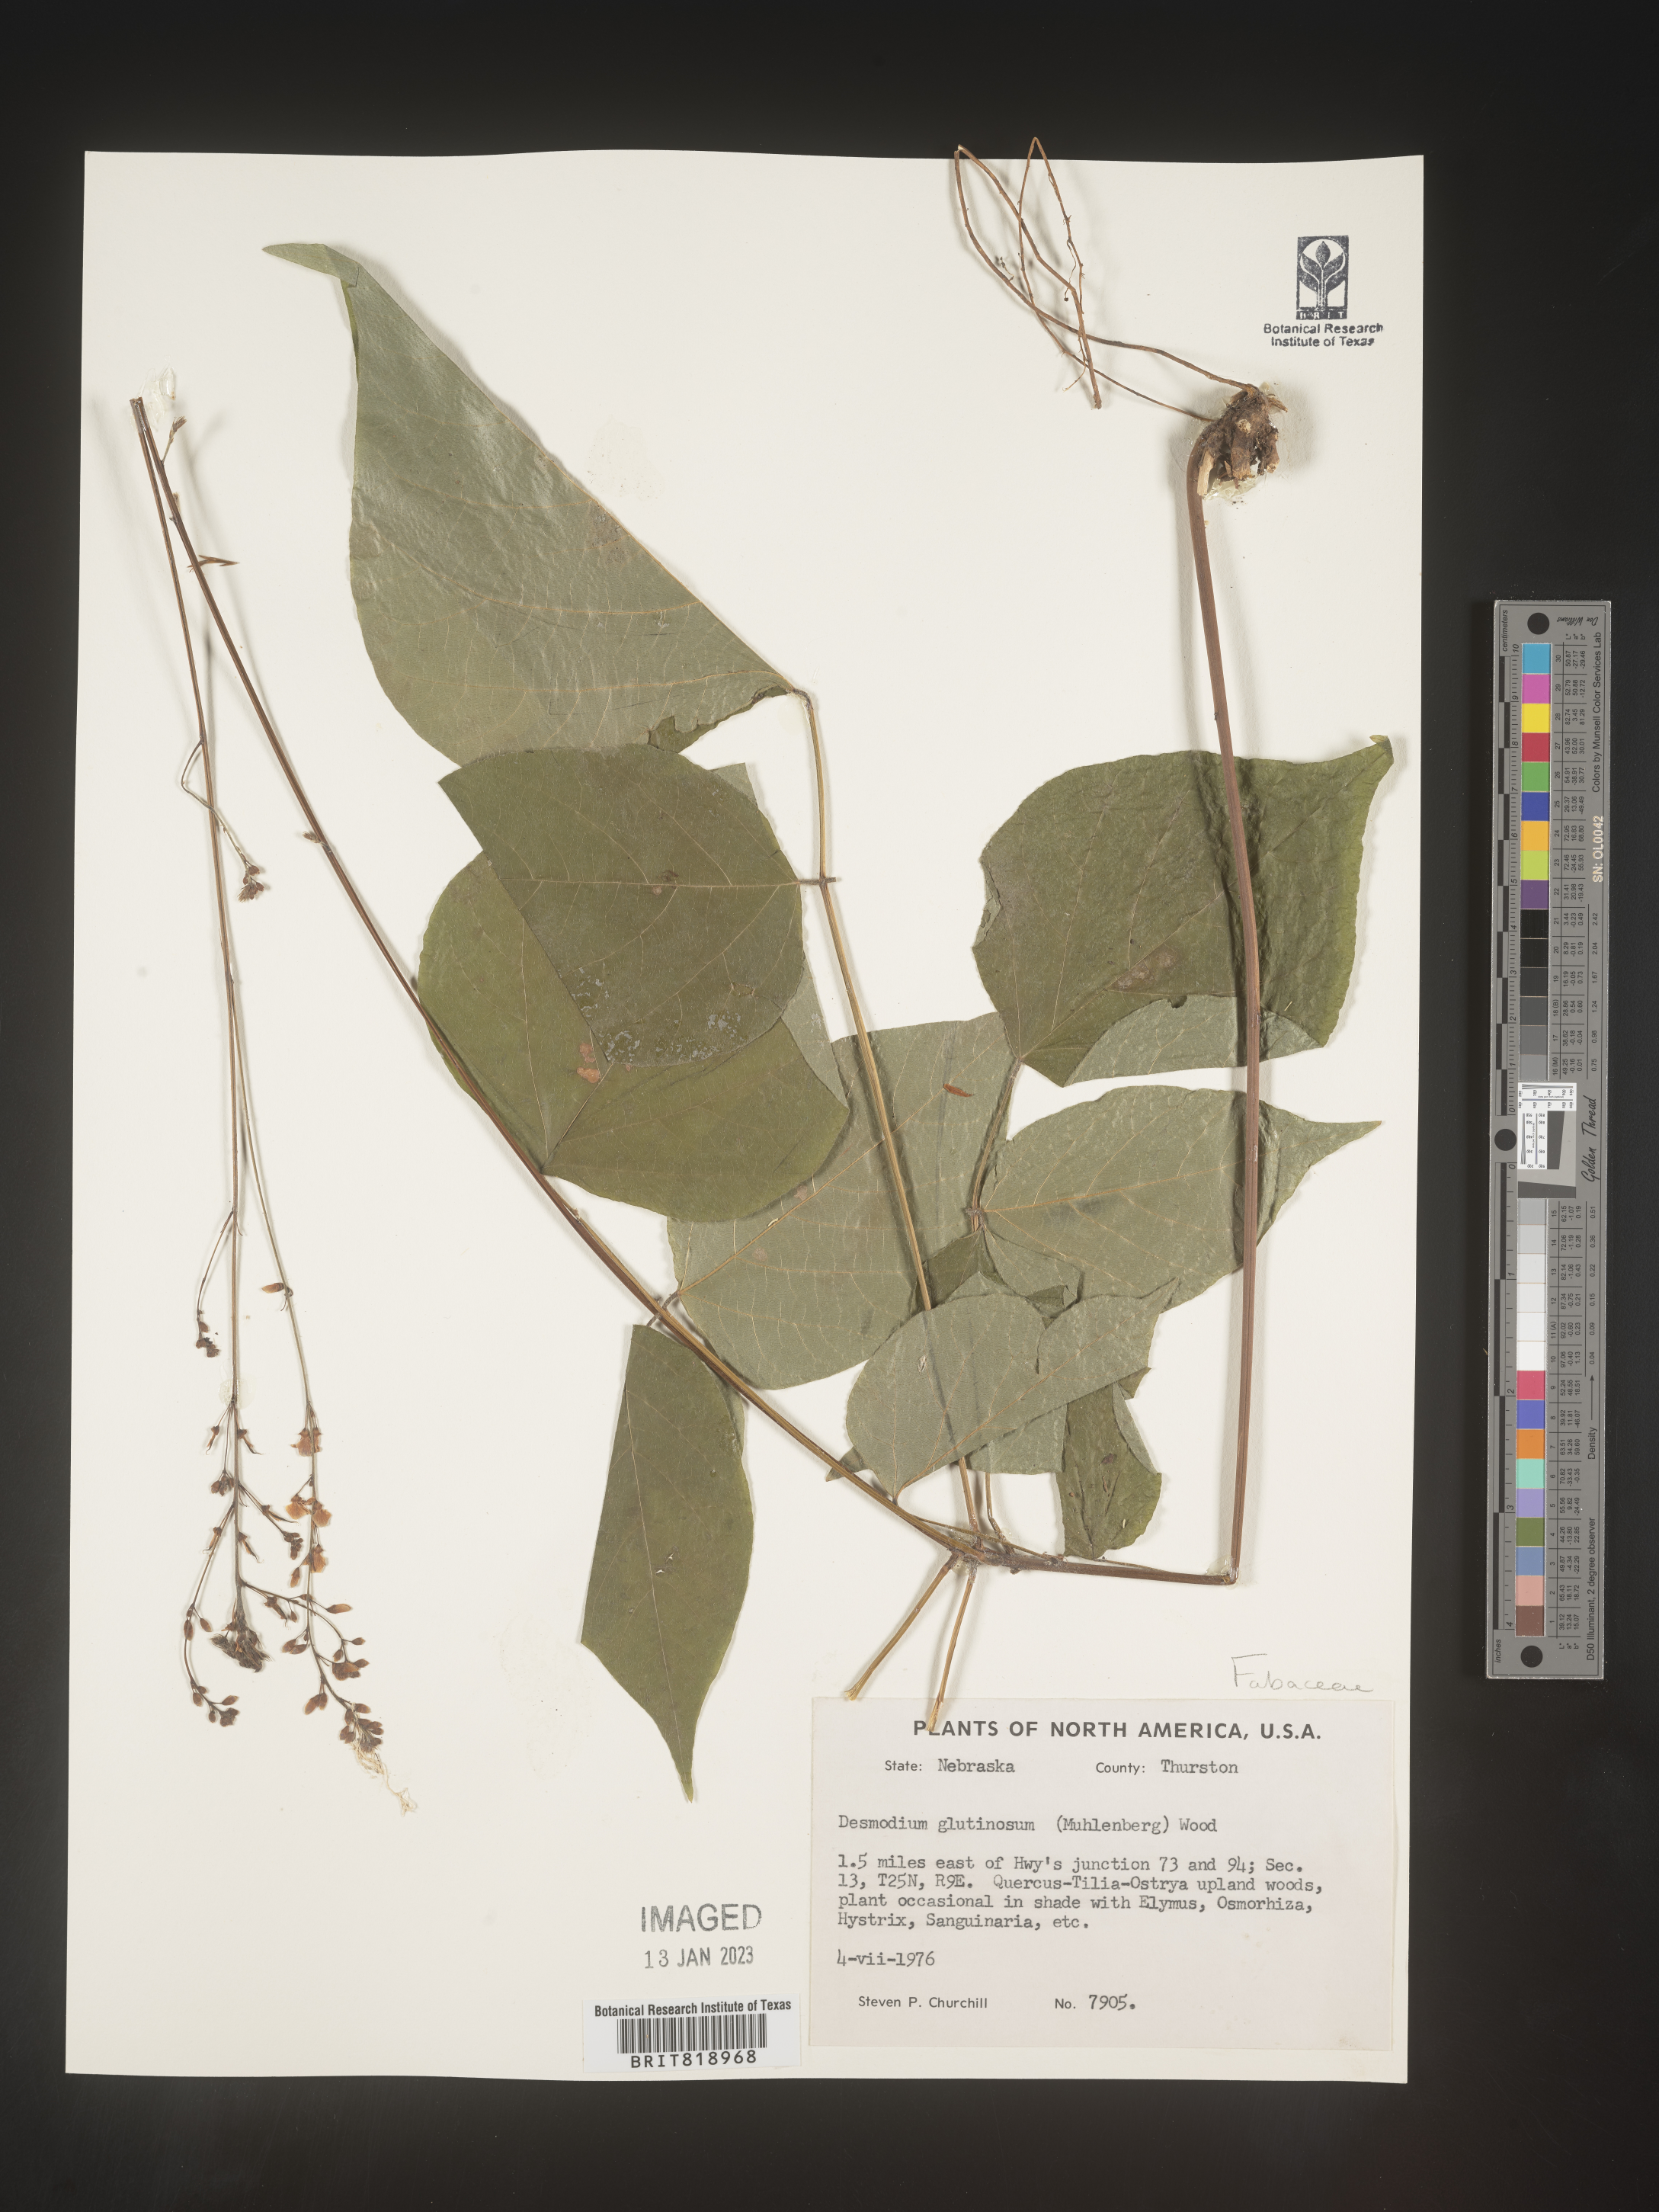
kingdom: Plantae
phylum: Tracheophyta
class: Magnoliopsida
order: Fabales
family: Fabaceae
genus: Hylodesmum
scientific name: Hylodesmum glutinosum
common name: Clustered-leaved tick-trefoil
